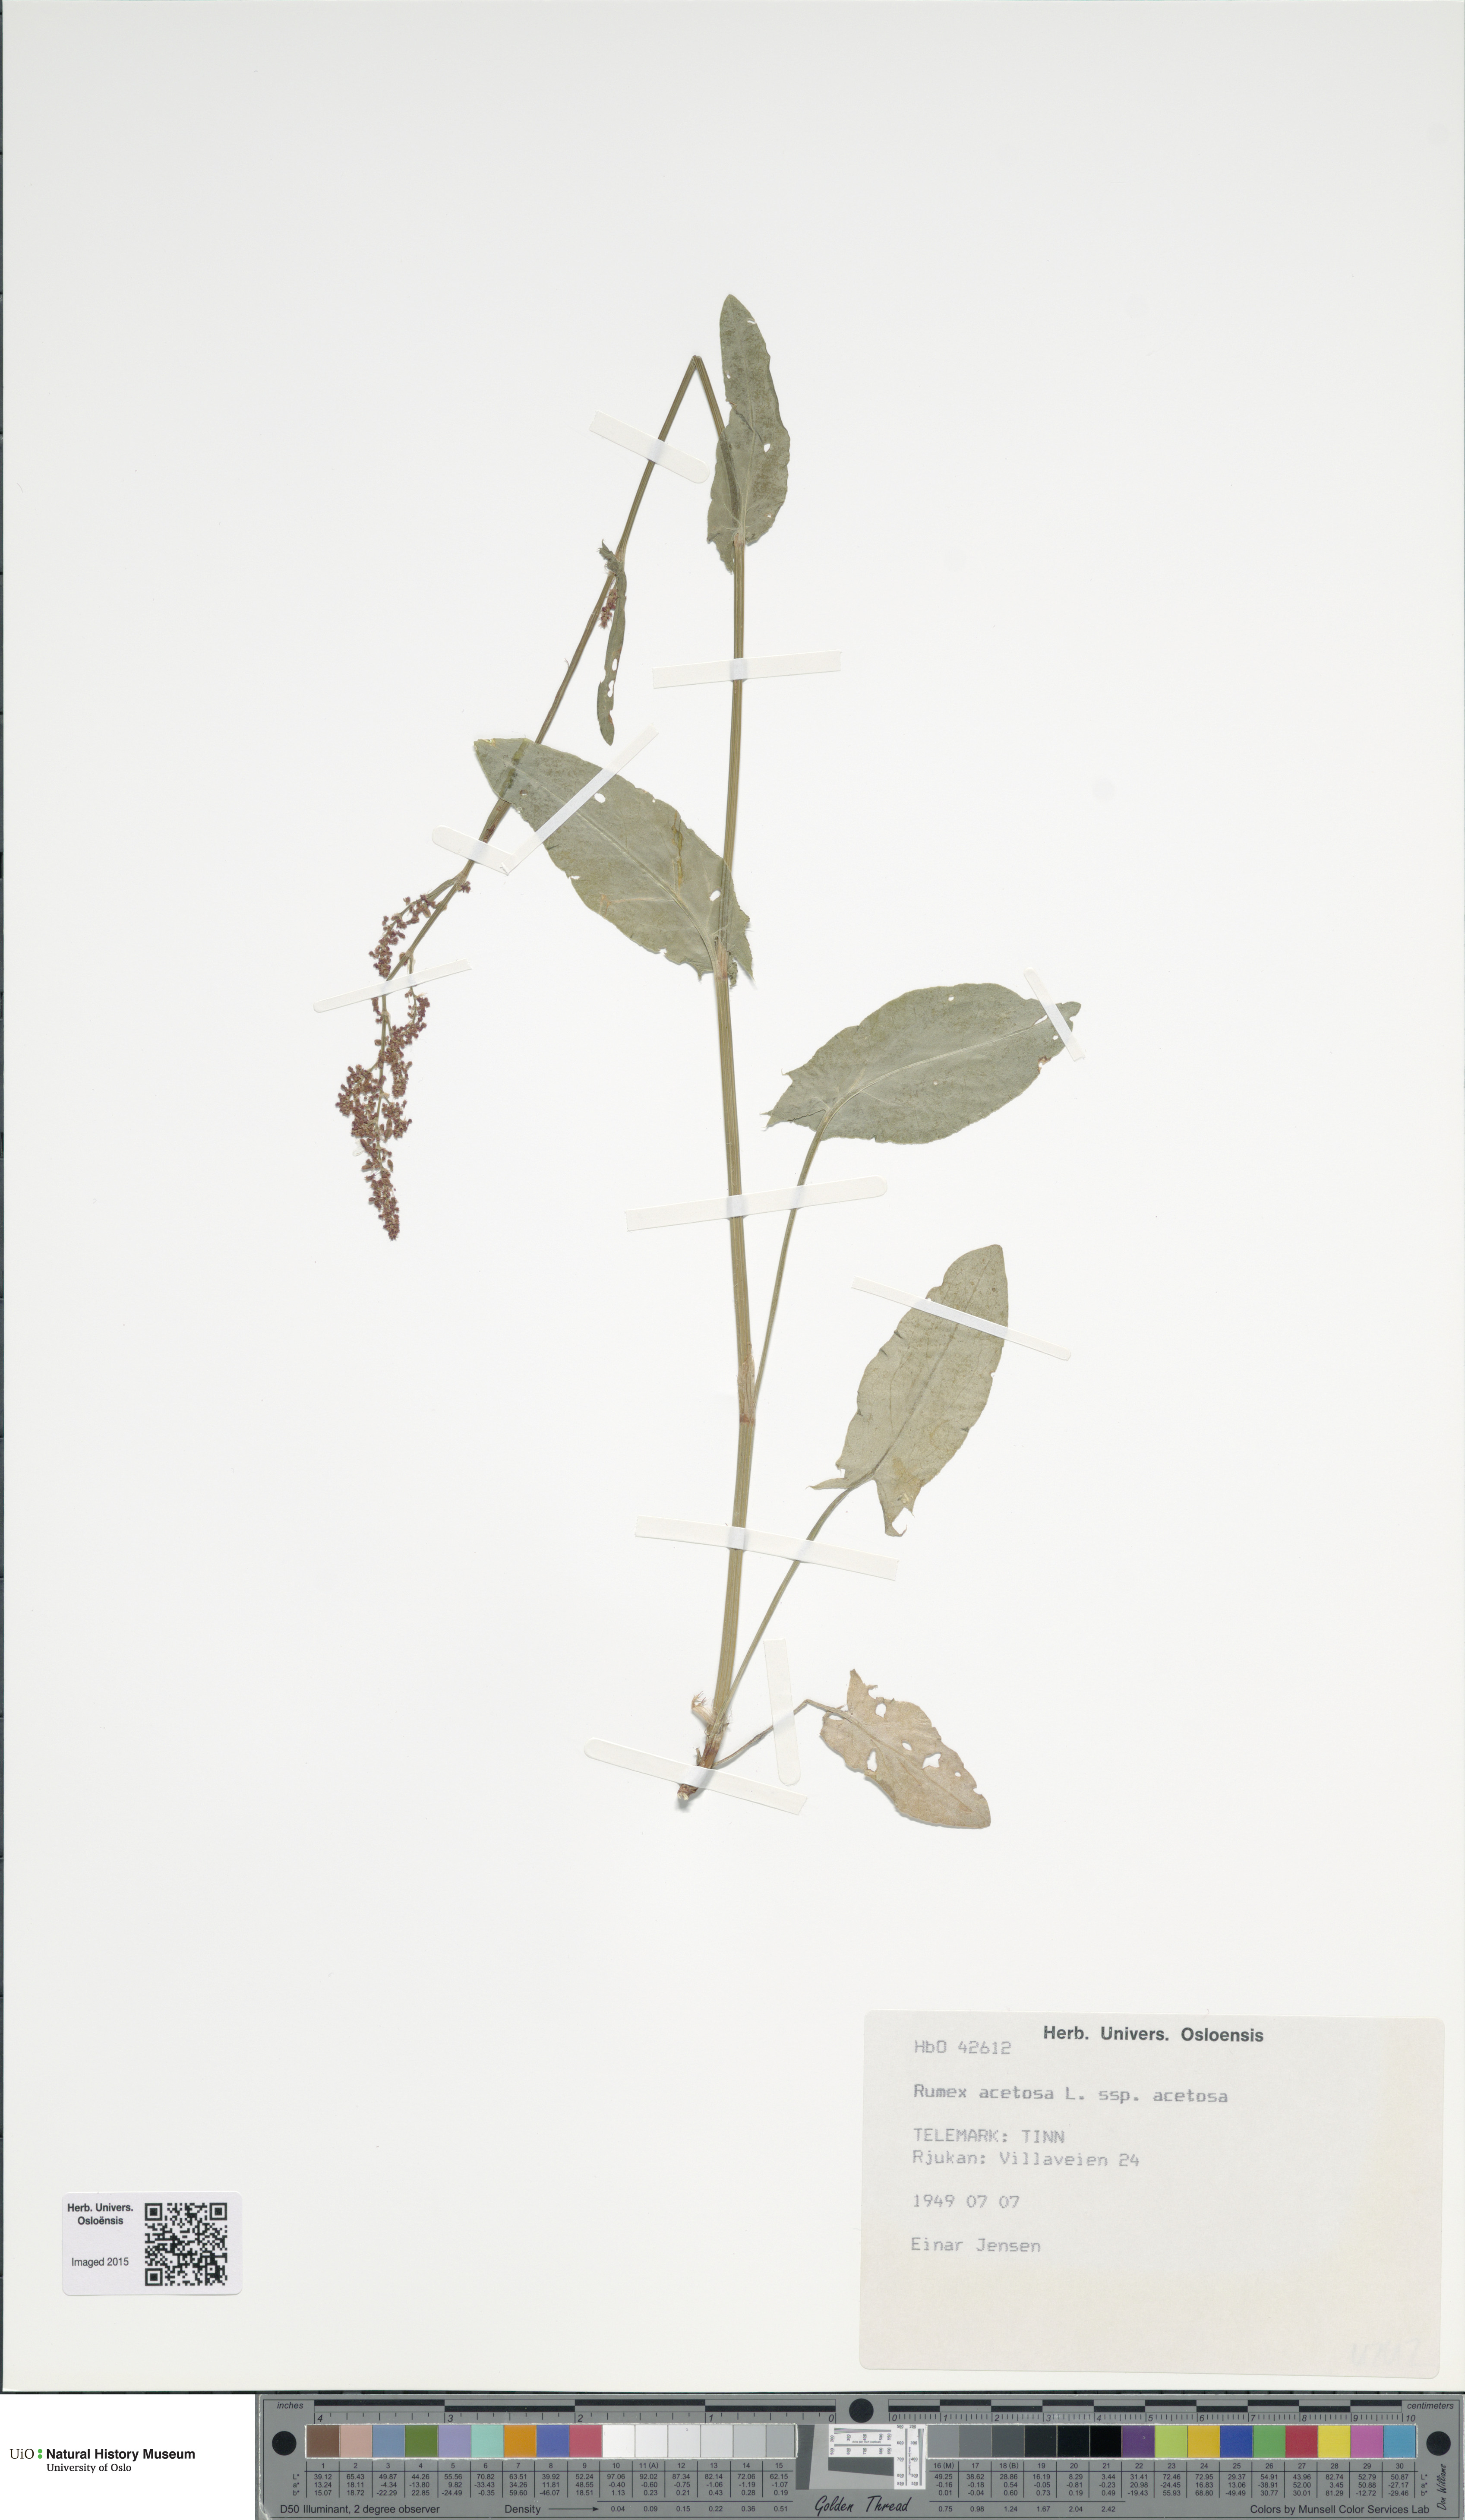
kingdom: Plantae
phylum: Tracheophyta
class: Magnoliopsida
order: Caryophyllales
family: Polygonaceae
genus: Rumex
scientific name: Rumex acetosa
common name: Garden sorrel
